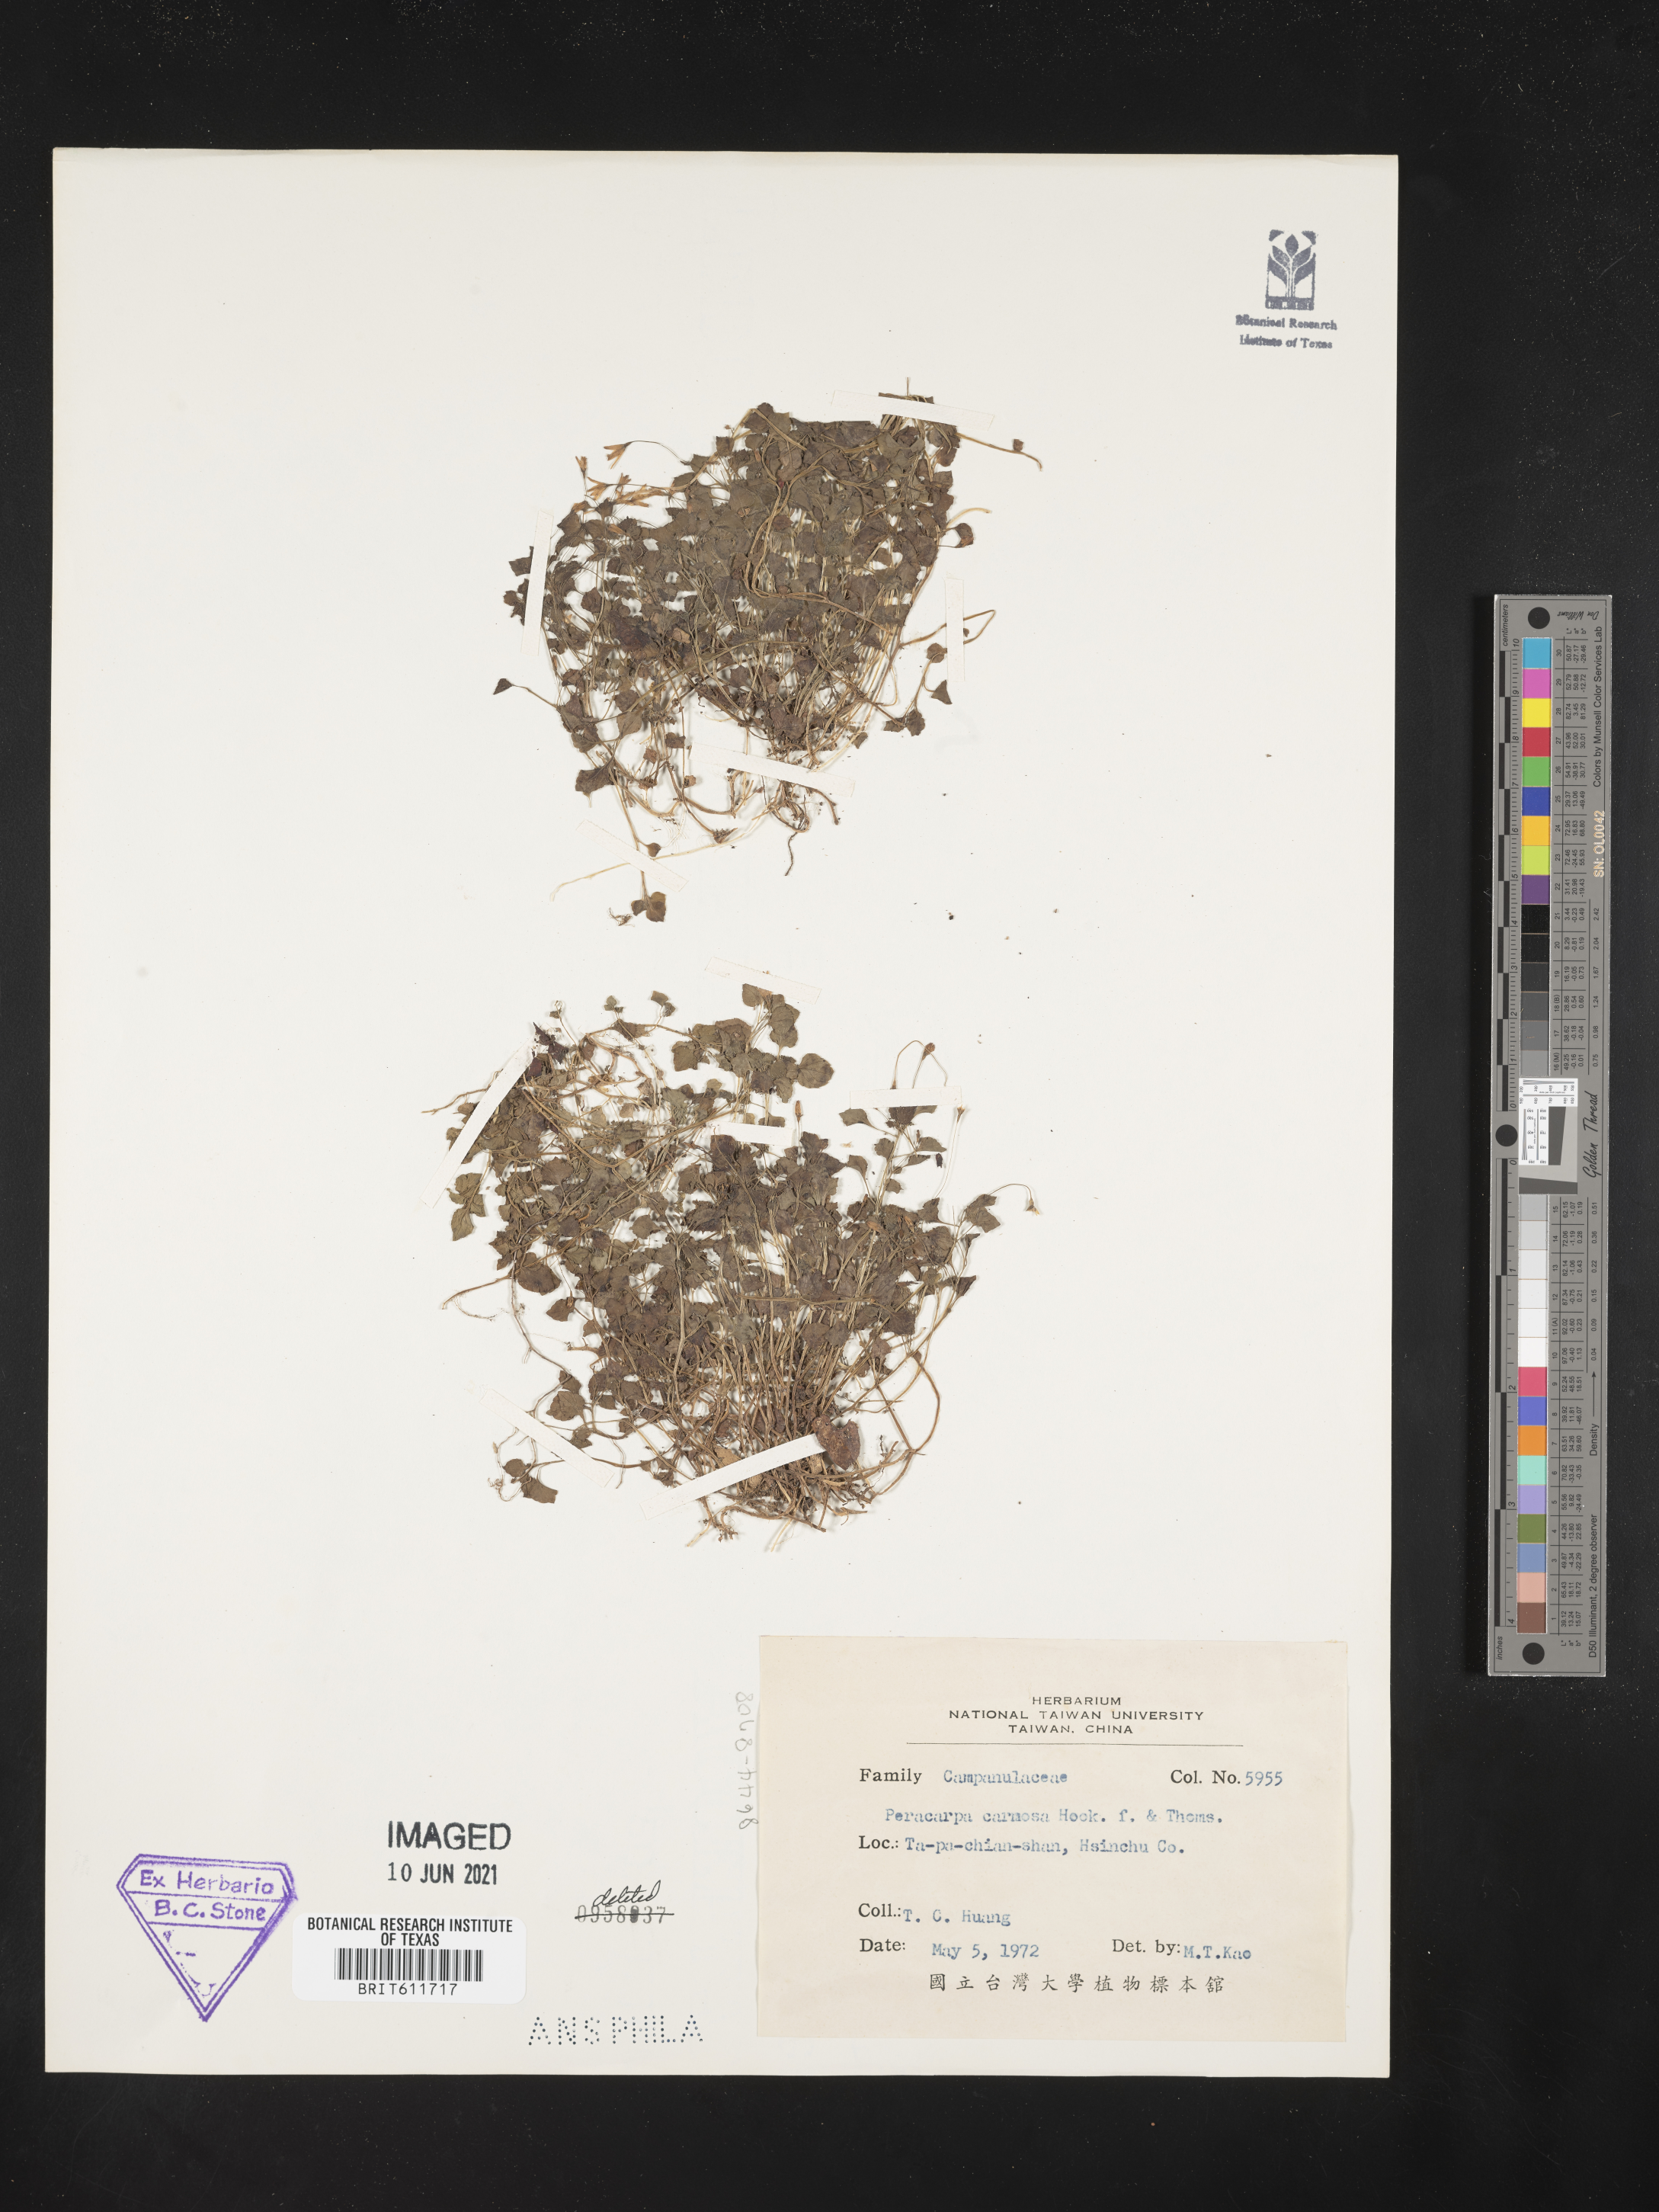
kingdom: Plantae
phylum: Tracheophyta
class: Magnoliopsida
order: Asterales
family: Campanulaceae
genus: Peracarpa
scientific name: Peracarpa carnosa
